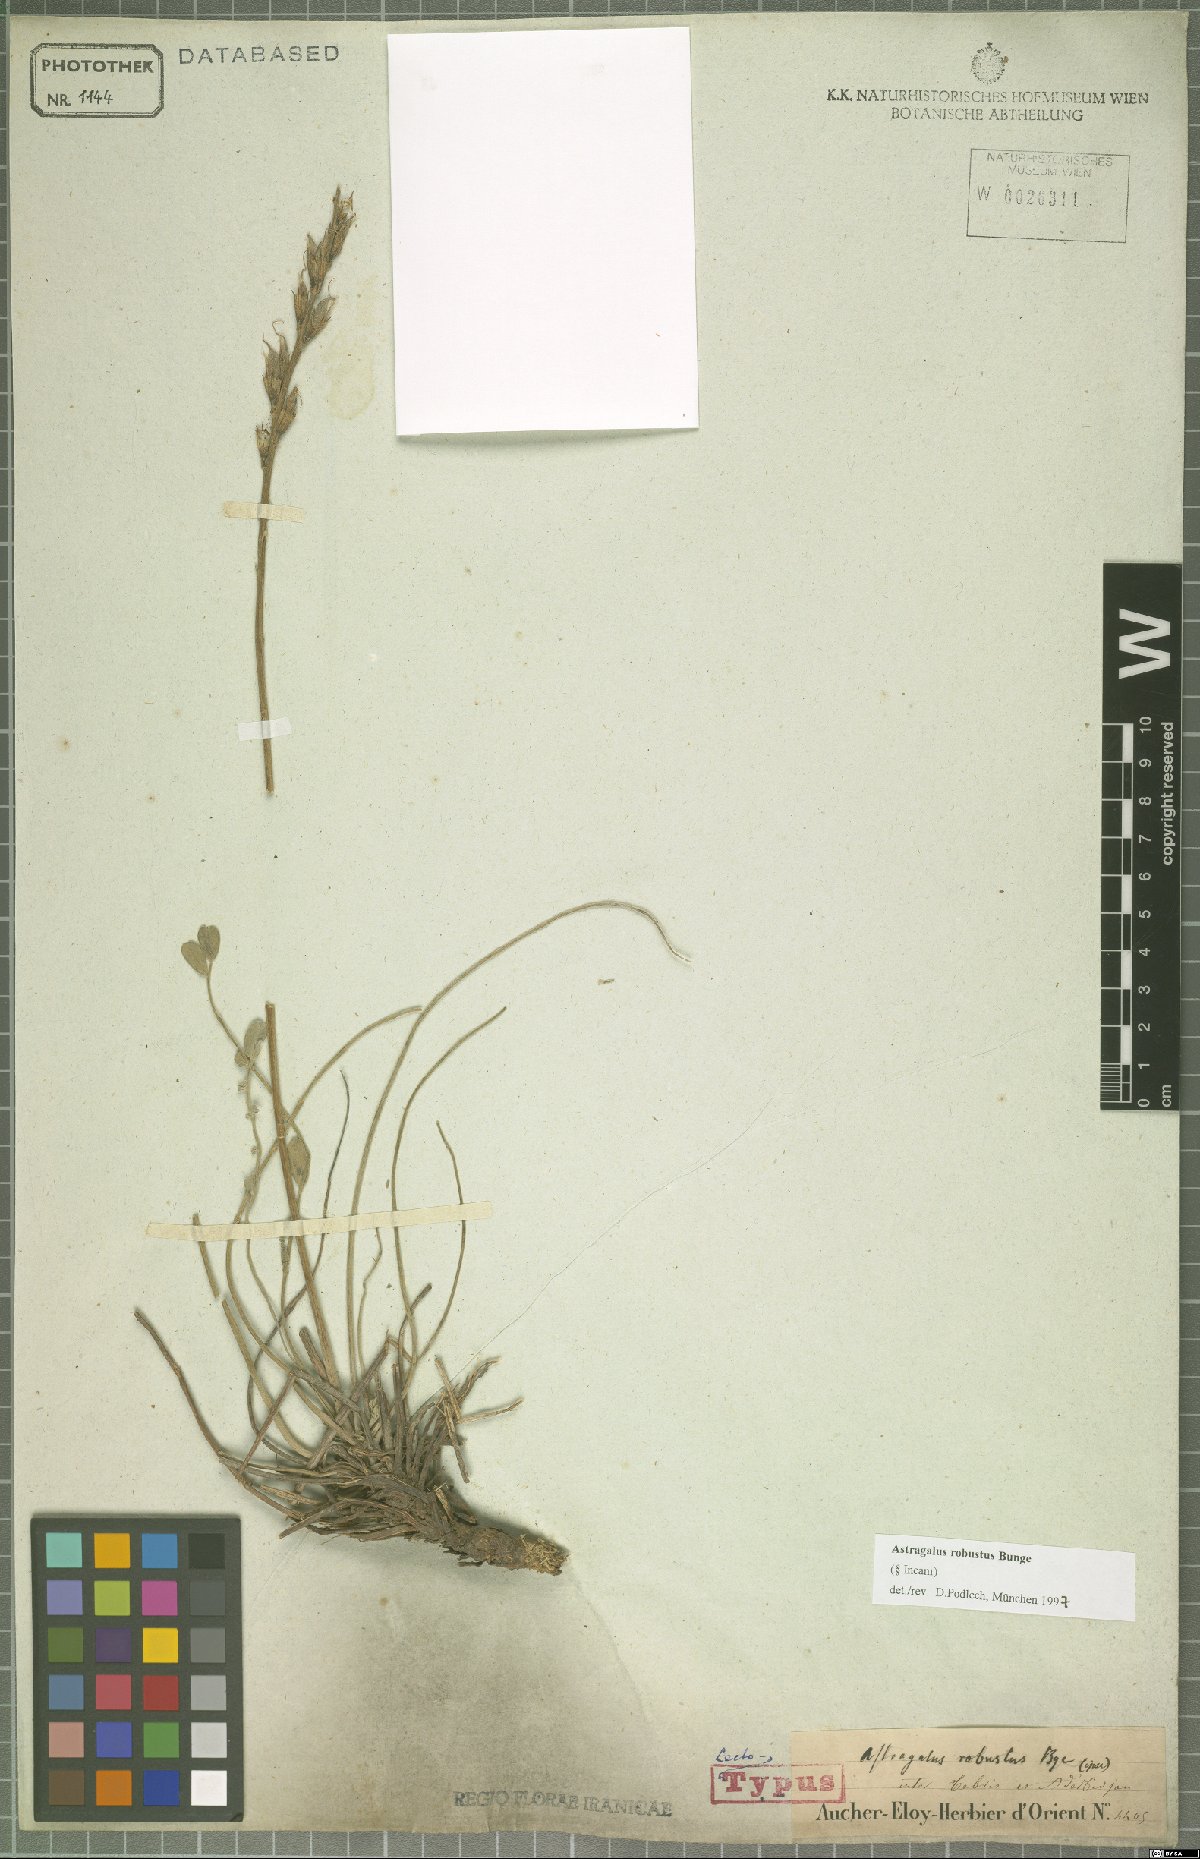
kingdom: Plantae
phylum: Tracheophyta
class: Magnoliopsida
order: Fabales
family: Fabaceae
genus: Astragalus
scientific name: Astragalus robustus
